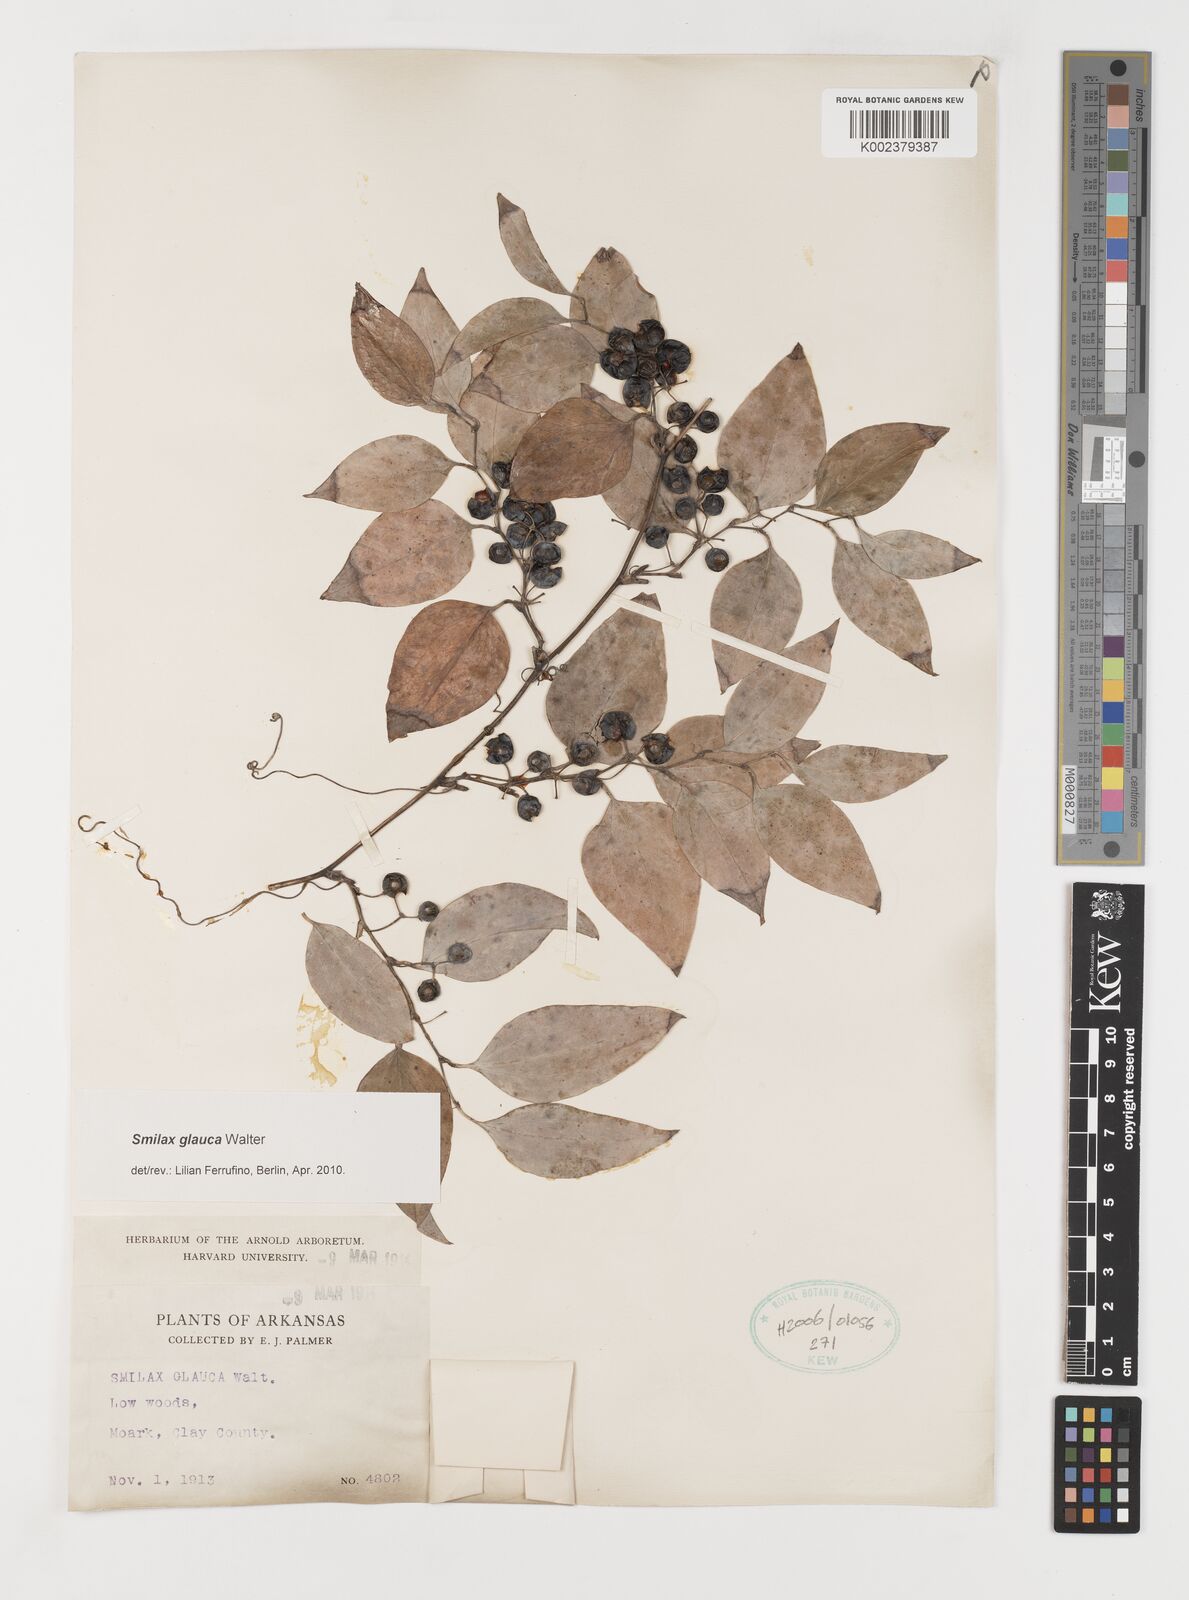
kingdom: Plantae
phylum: Tracheophyta
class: Liliopsida
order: Liliales
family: Smilacaceae
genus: Smilax
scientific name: Smilax glauca
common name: Cat greenbrier
